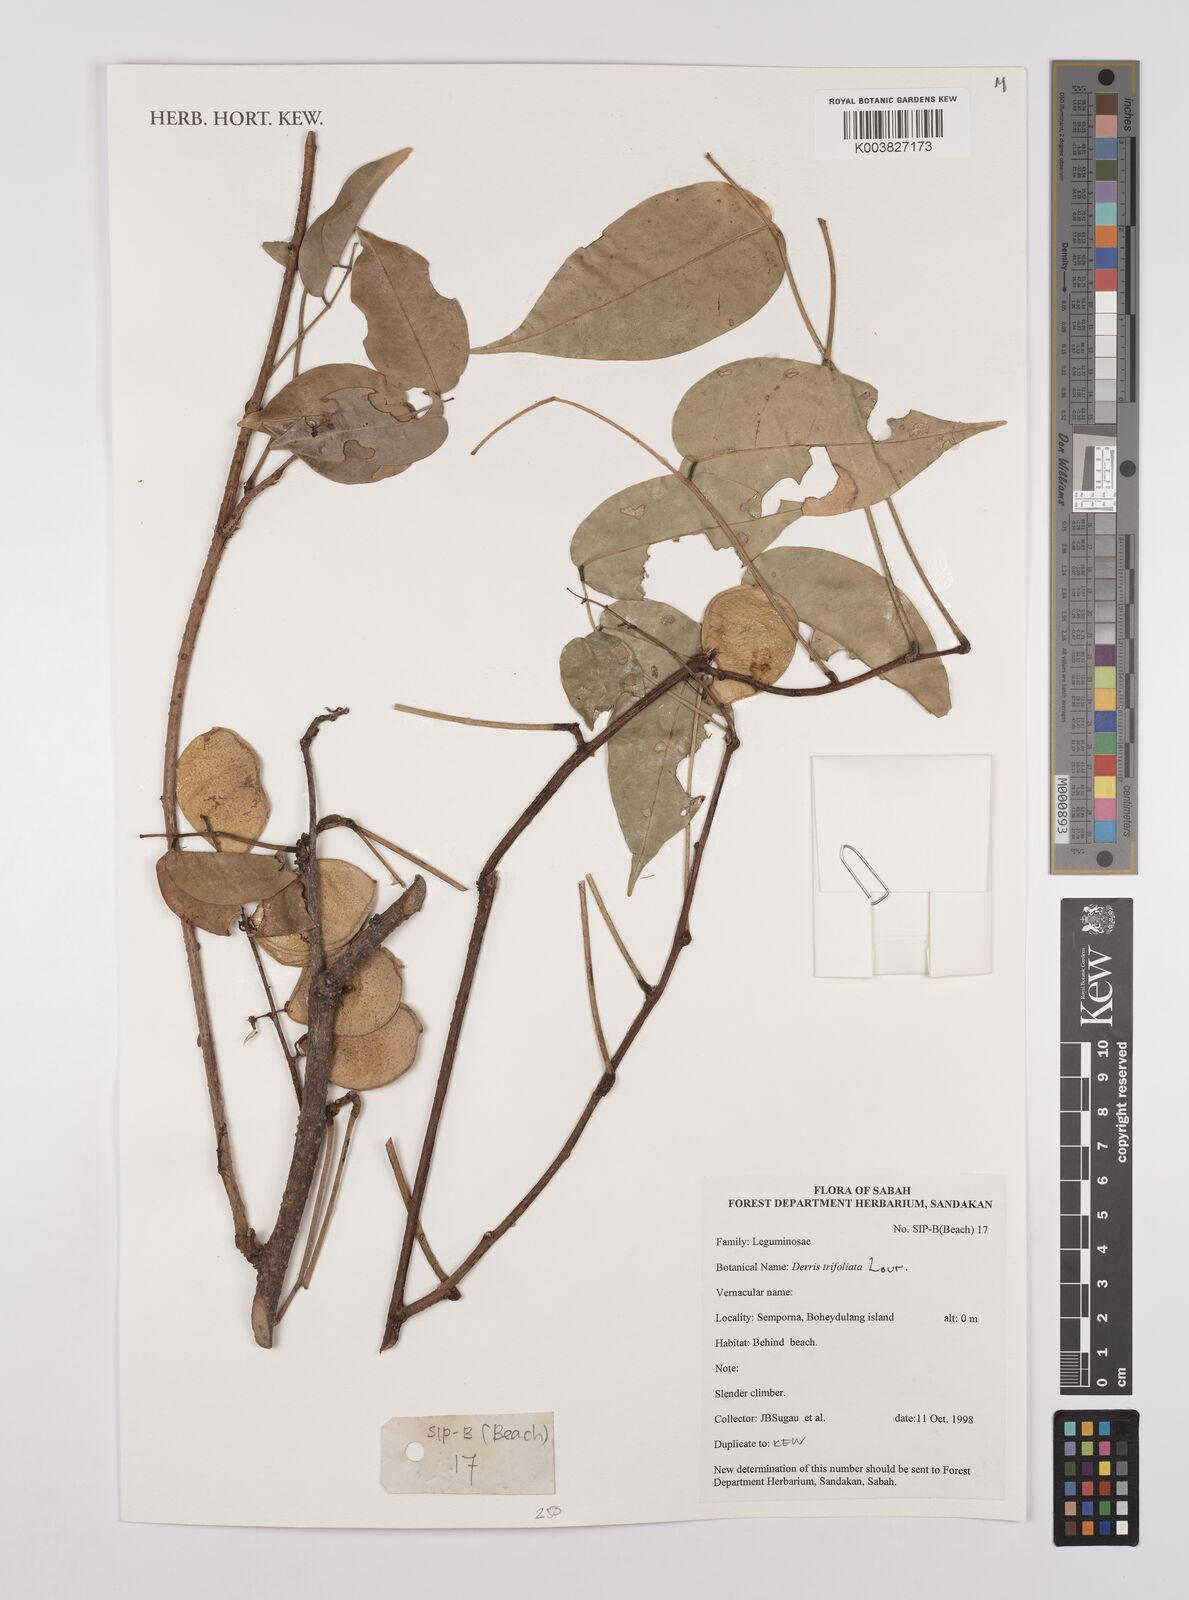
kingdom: Plantae
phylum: Tracheophyta
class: Magnoliopsida
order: Fabales
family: Fabaceae
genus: Derris
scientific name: Derris trifoliata
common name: Three-leaf derris
